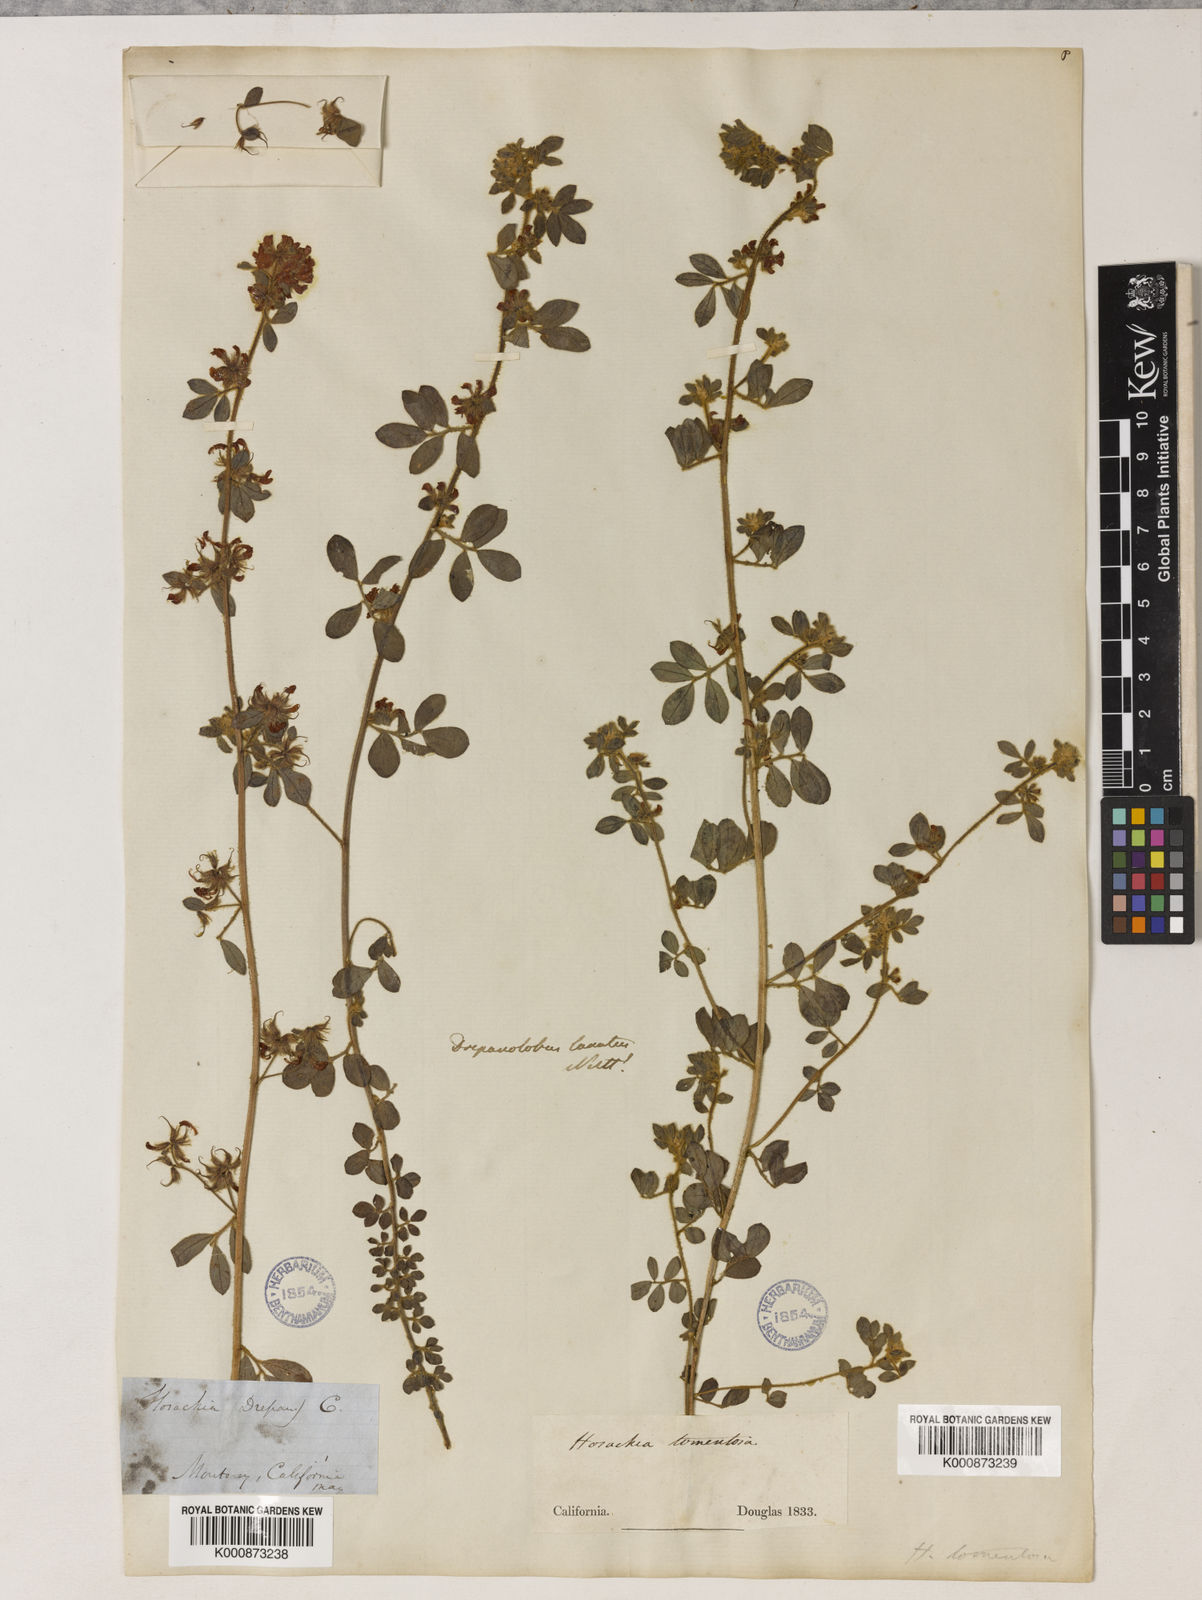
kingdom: Plantae
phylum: Tracheophyta
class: Magnoliopsida
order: Fabales
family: Fabaceae
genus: Acmispon
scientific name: Acmispon tomentosus
